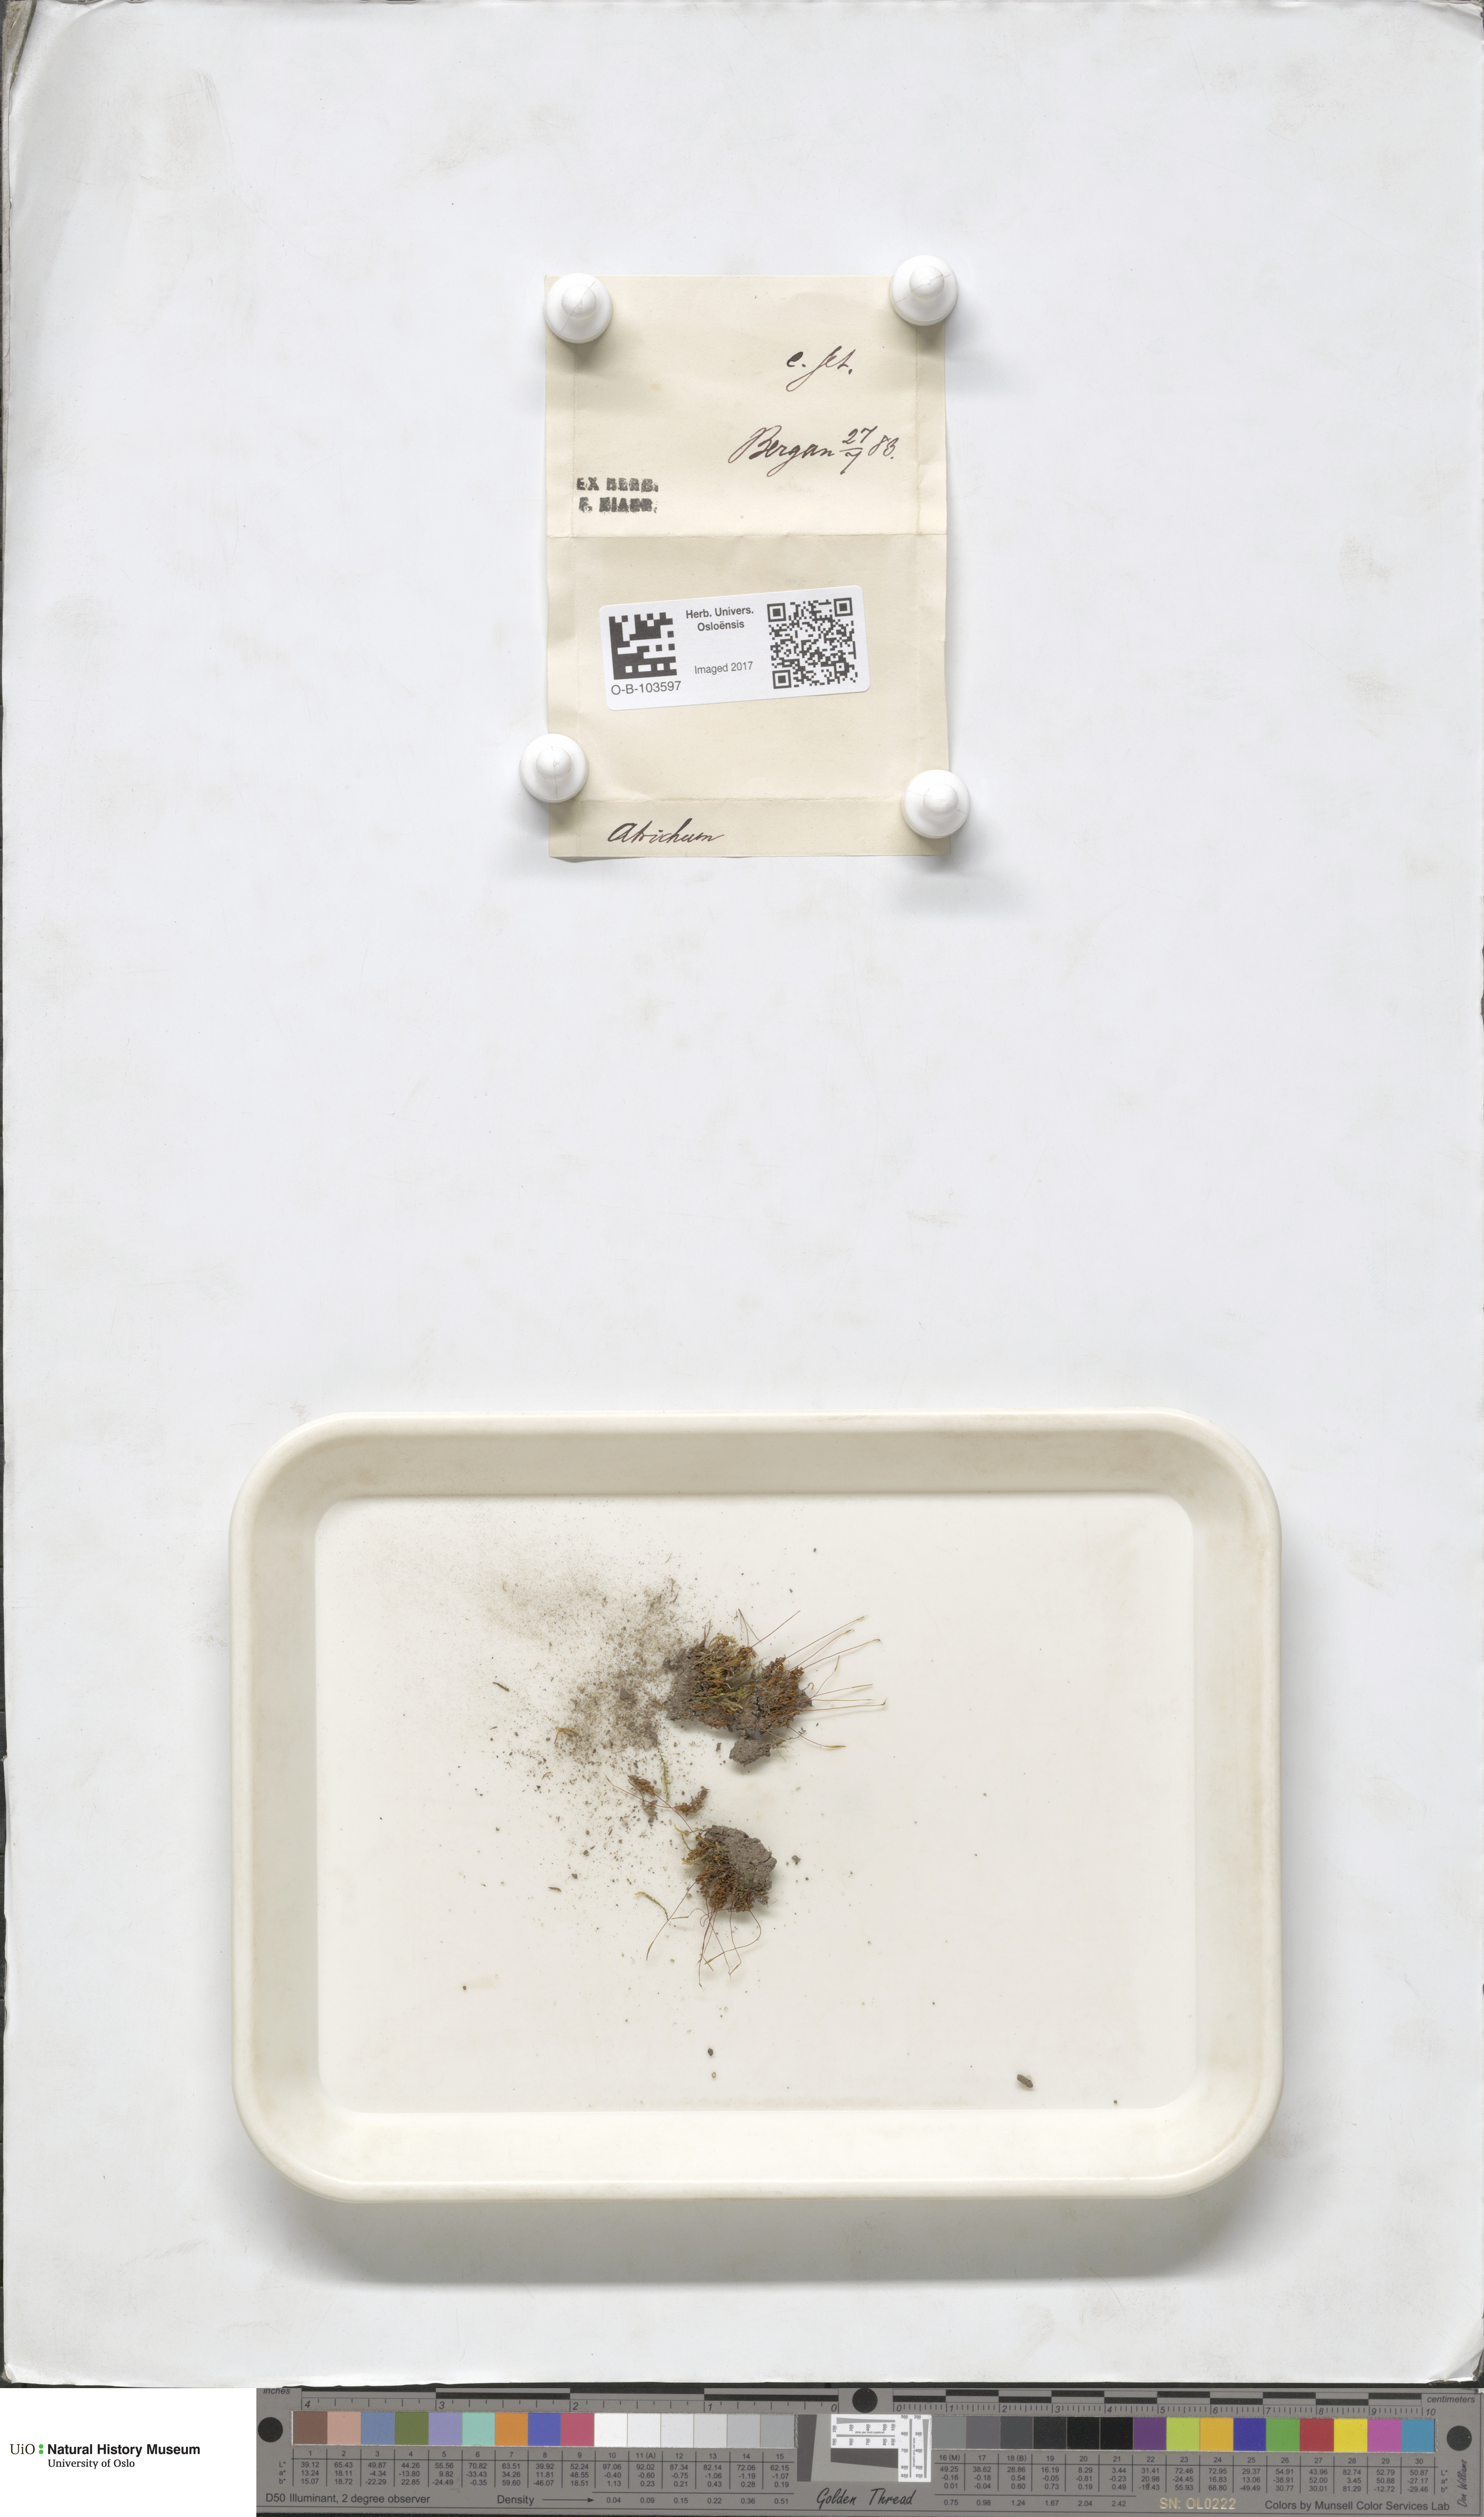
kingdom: Plantae
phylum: Bryophyta
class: Polytrichopsida
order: Polytrichales
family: Polytrichaceae
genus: Atrichum
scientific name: Atrichum undulatum
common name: Common smoothcap
